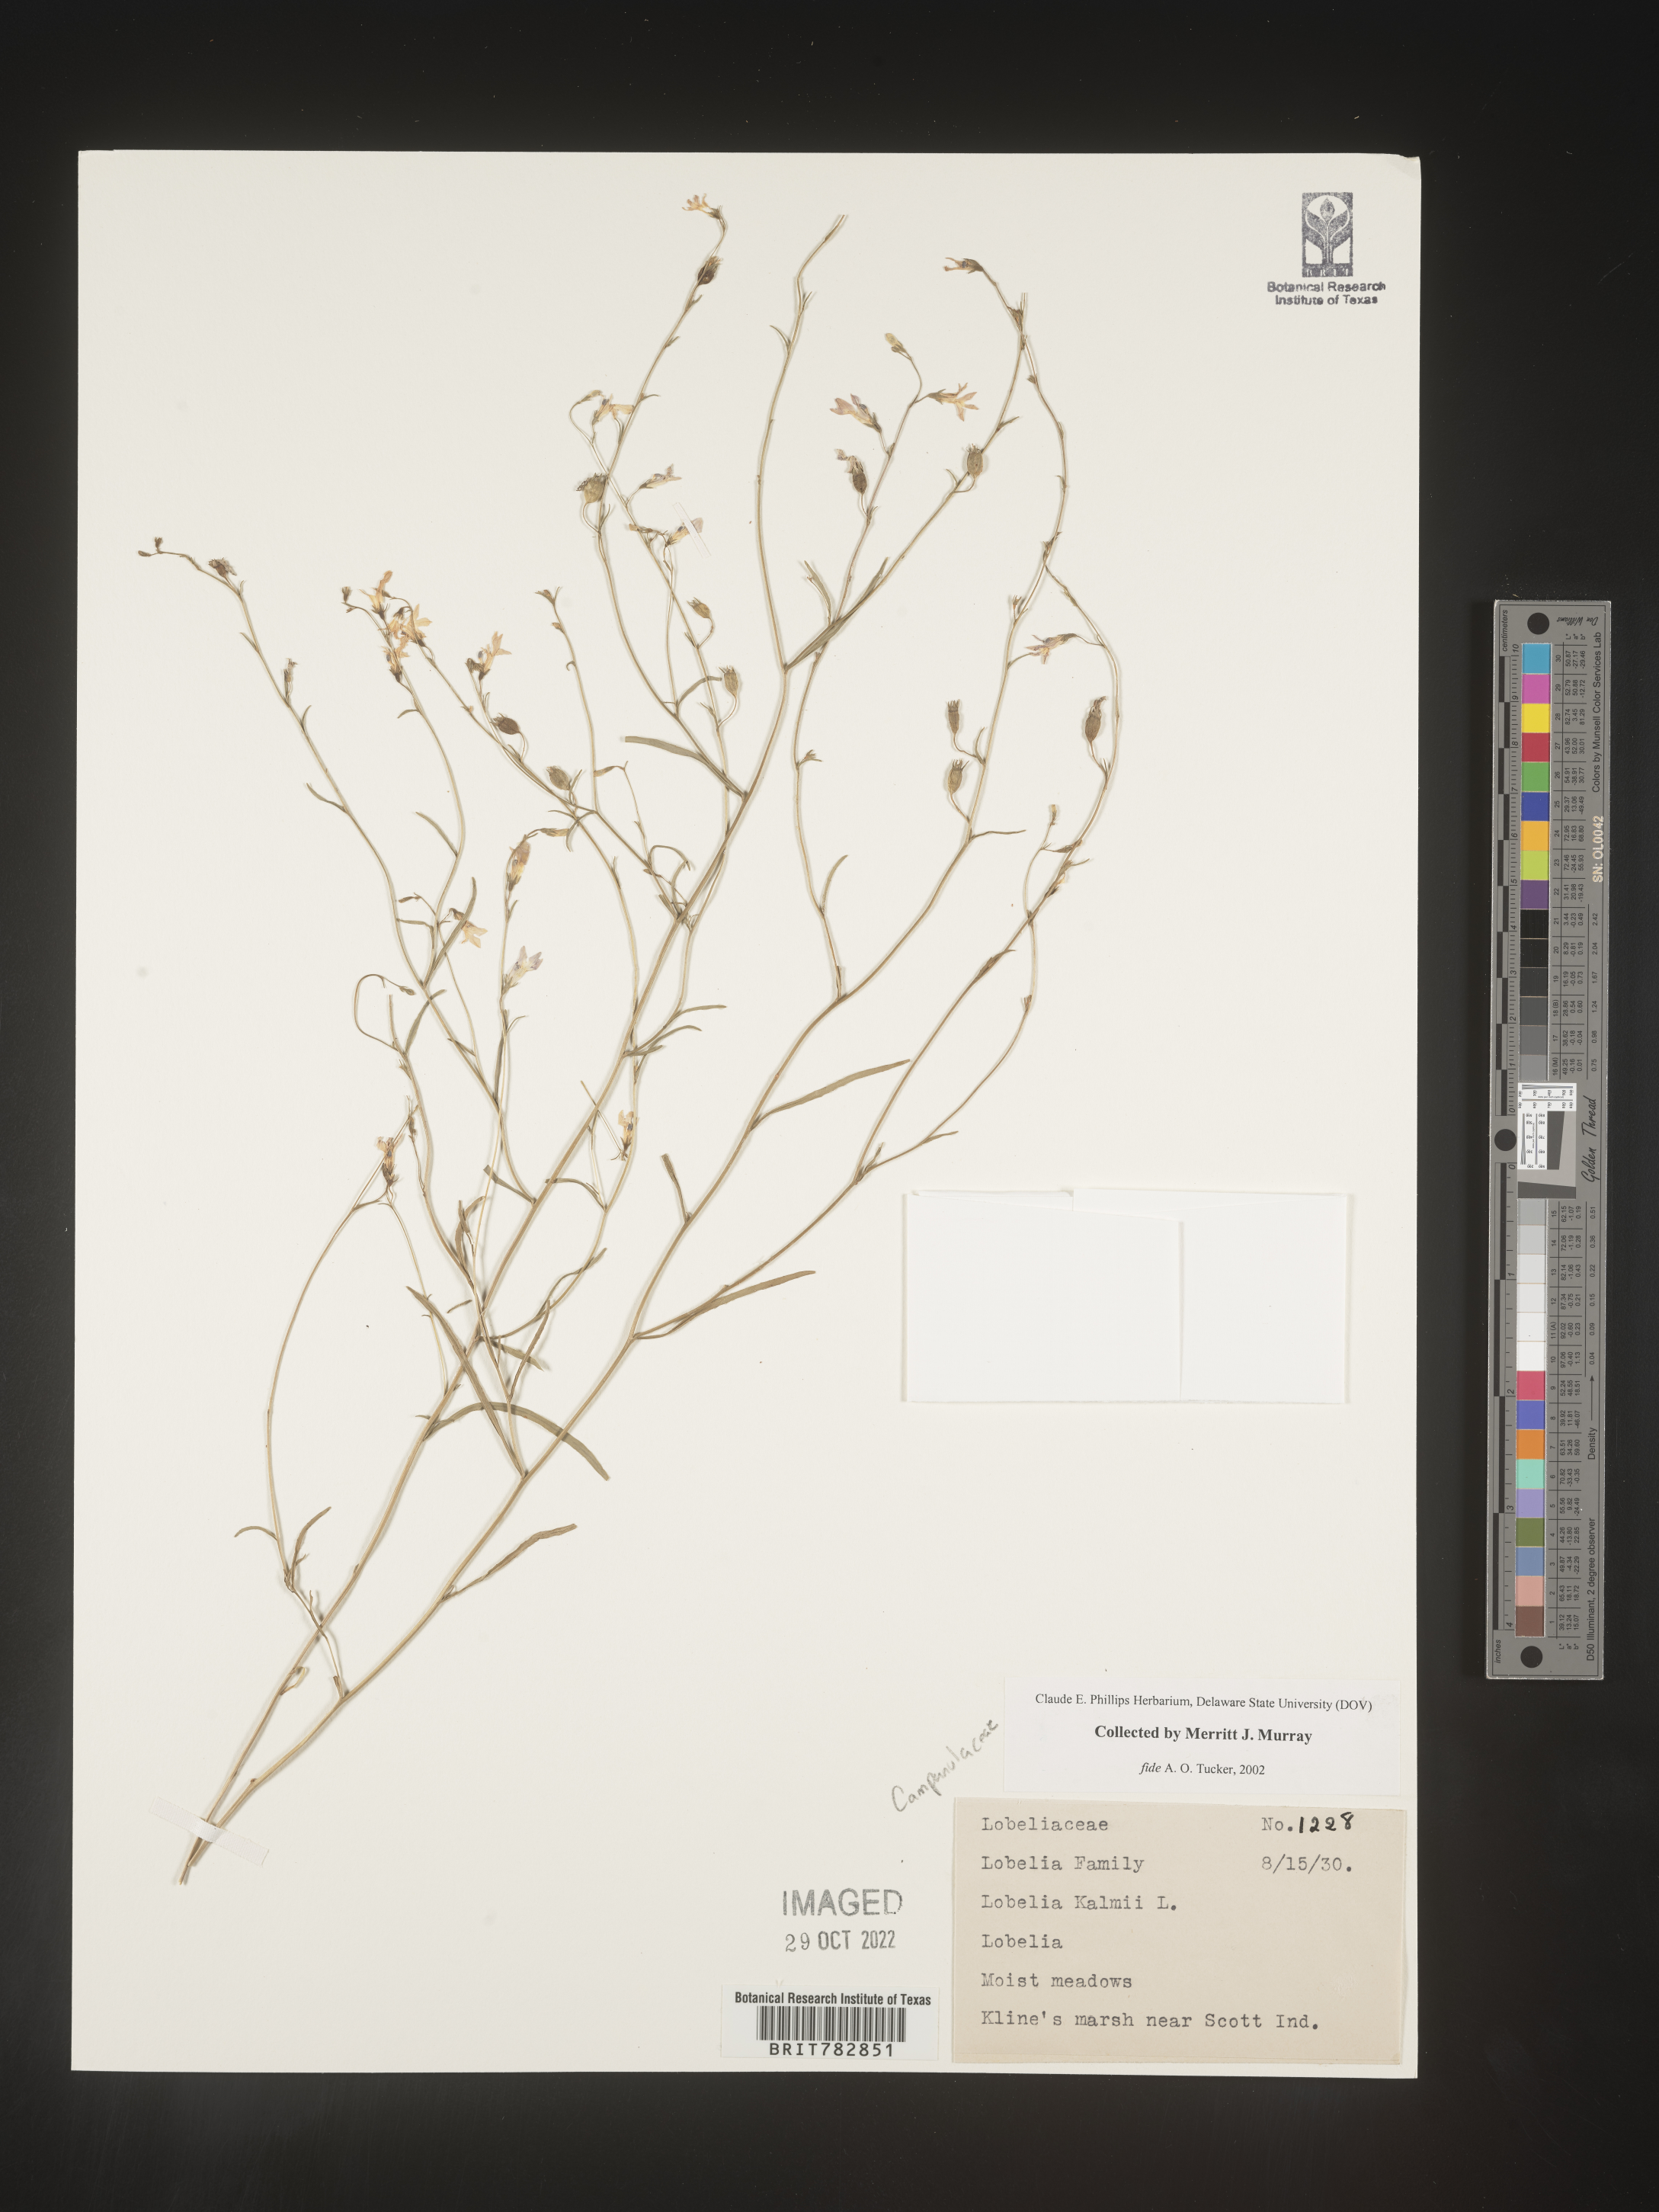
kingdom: Plantae
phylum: Tracheophyta
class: Magnoliopsida
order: Asterales
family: Campanulaceae
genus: Lobelia
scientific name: Lobelia
